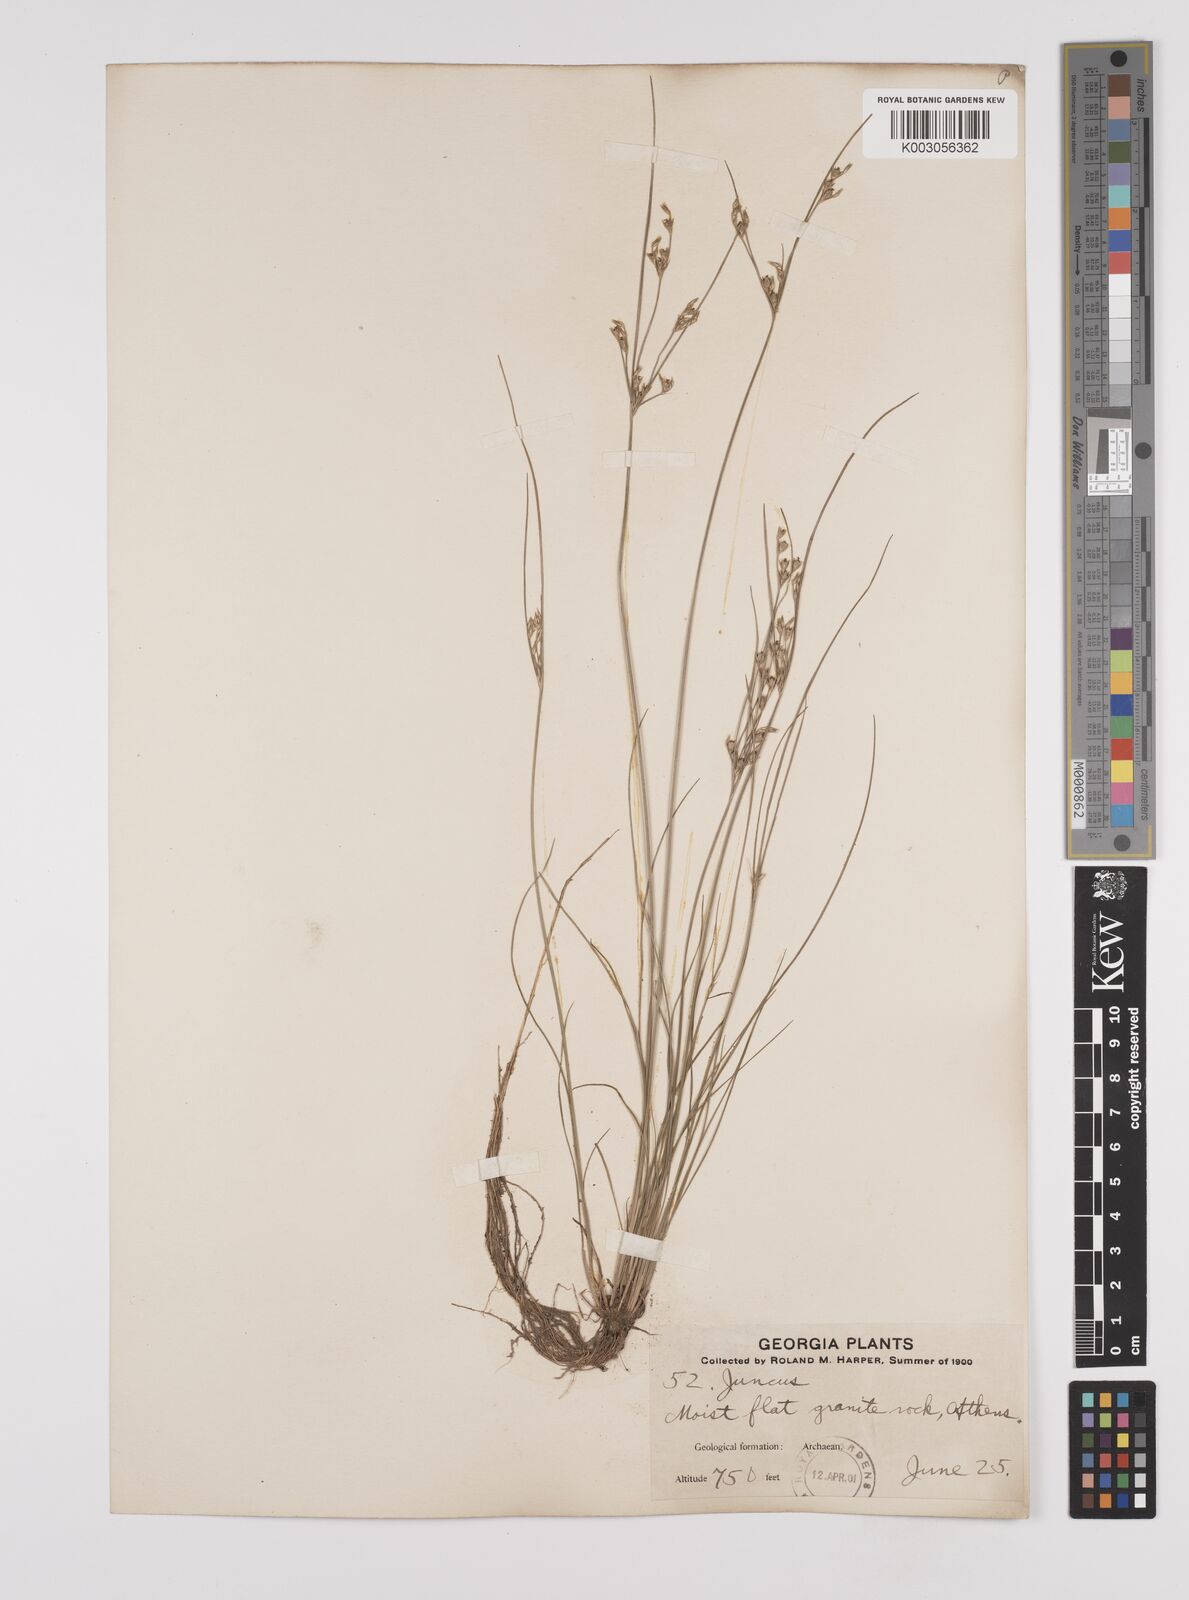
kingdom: Plantae
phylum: Tracheophyta
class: Liliopsida
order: Poales
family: Juncaceae
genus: Juncus
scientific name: Juncus tenuis
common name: Slender rush
